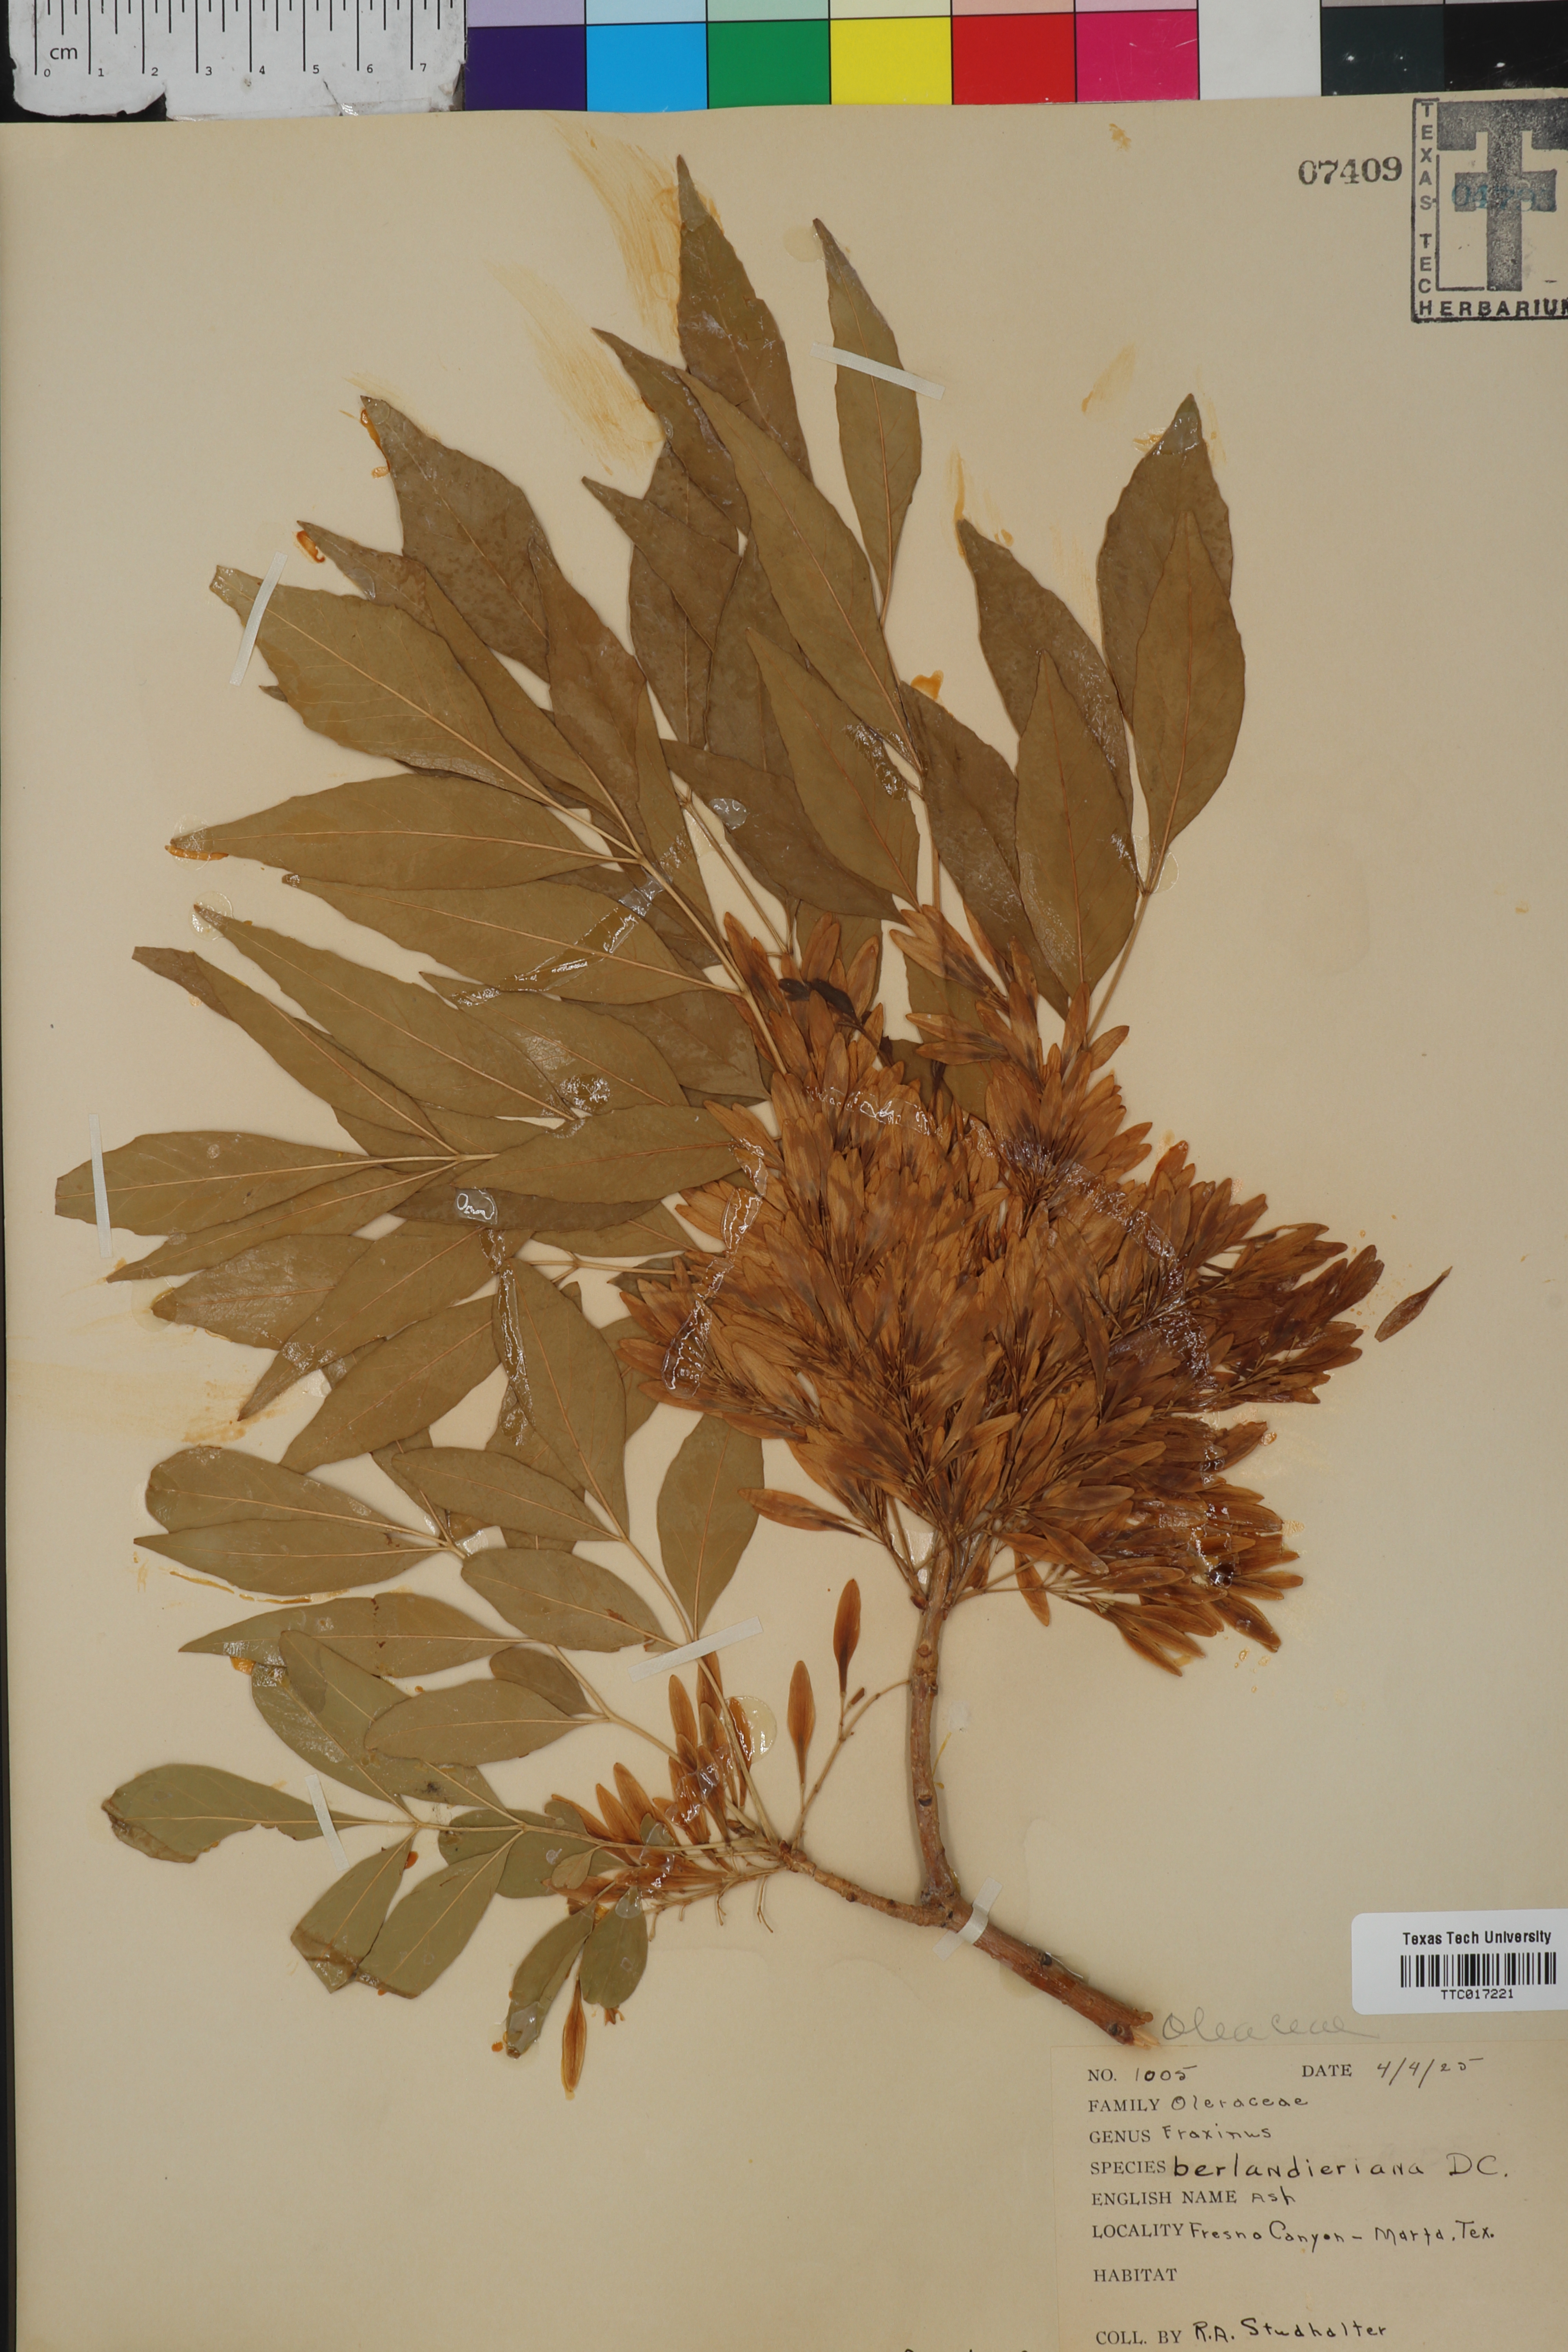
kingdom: Plantae
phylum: Tracheophyta
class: Magnoliopsida
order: Lamiales
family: Oleaceae
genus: Fraxinus
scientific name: Fraxinus berlandieriana
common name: Berlandier ash
